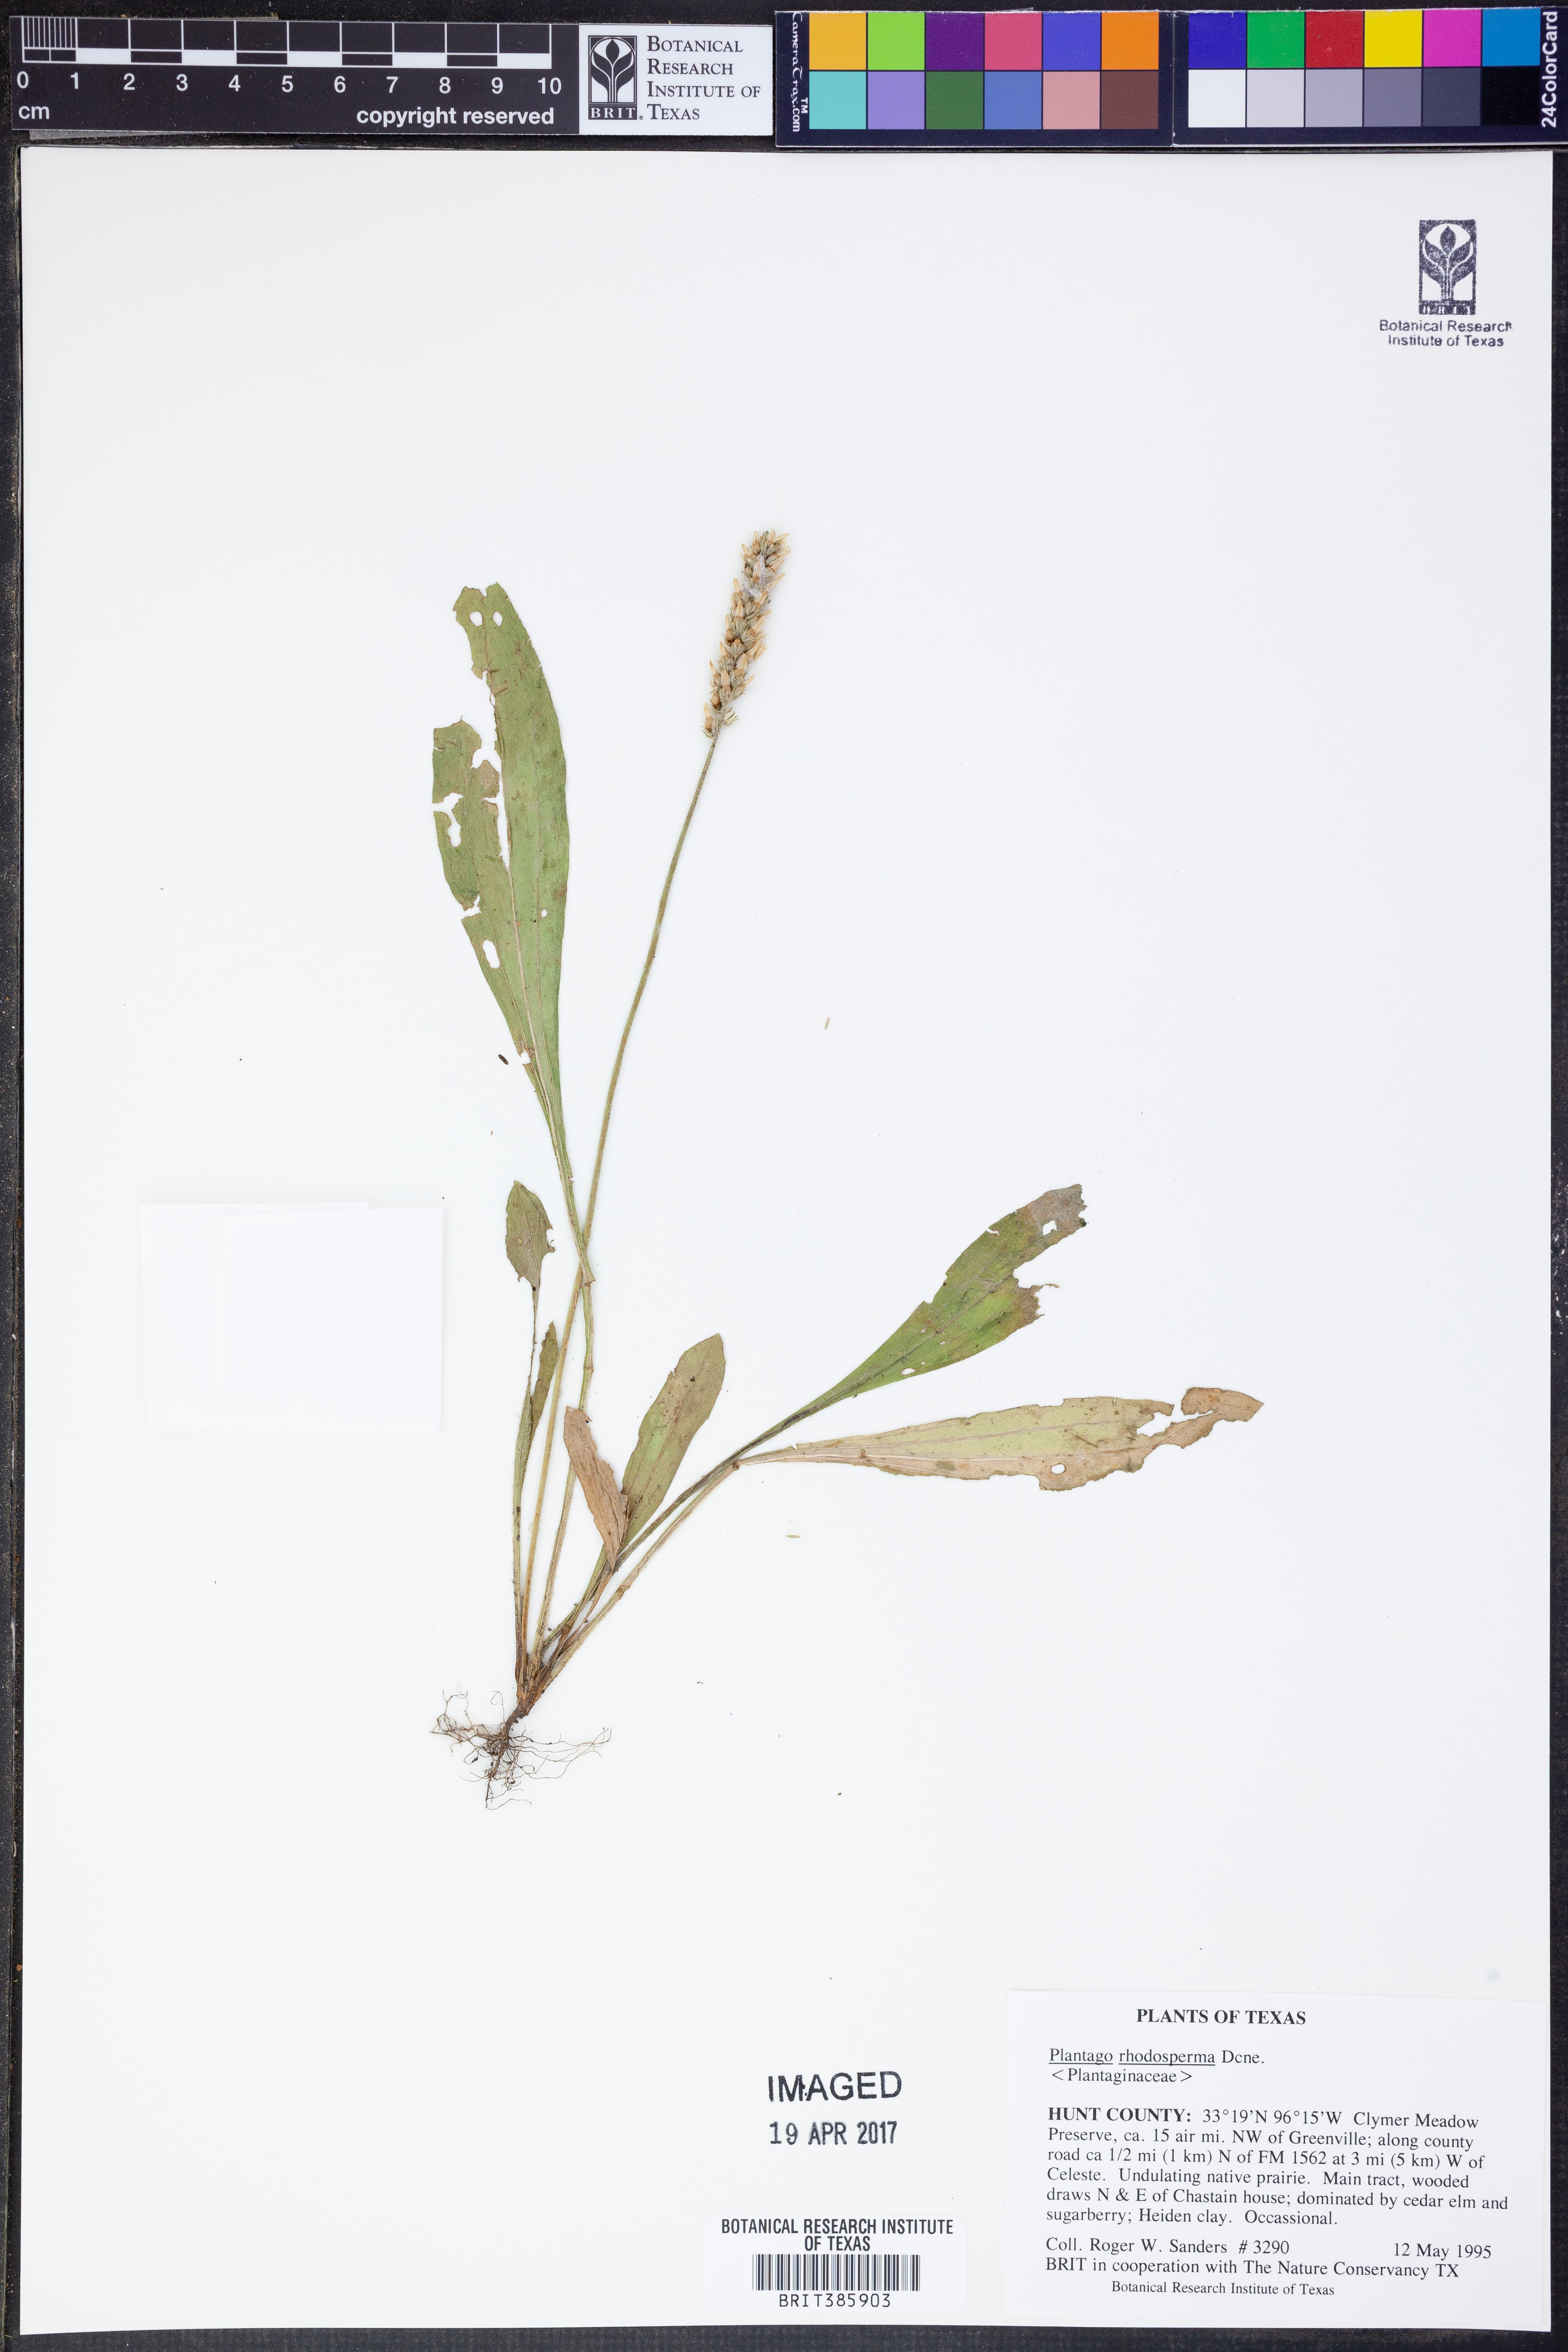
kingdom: Plantae
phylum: Tracheophyta
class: Magnoliopsida
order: Lamiales
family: Plantaginaceae
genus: Plantago
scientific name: Plantago rhodosperma
